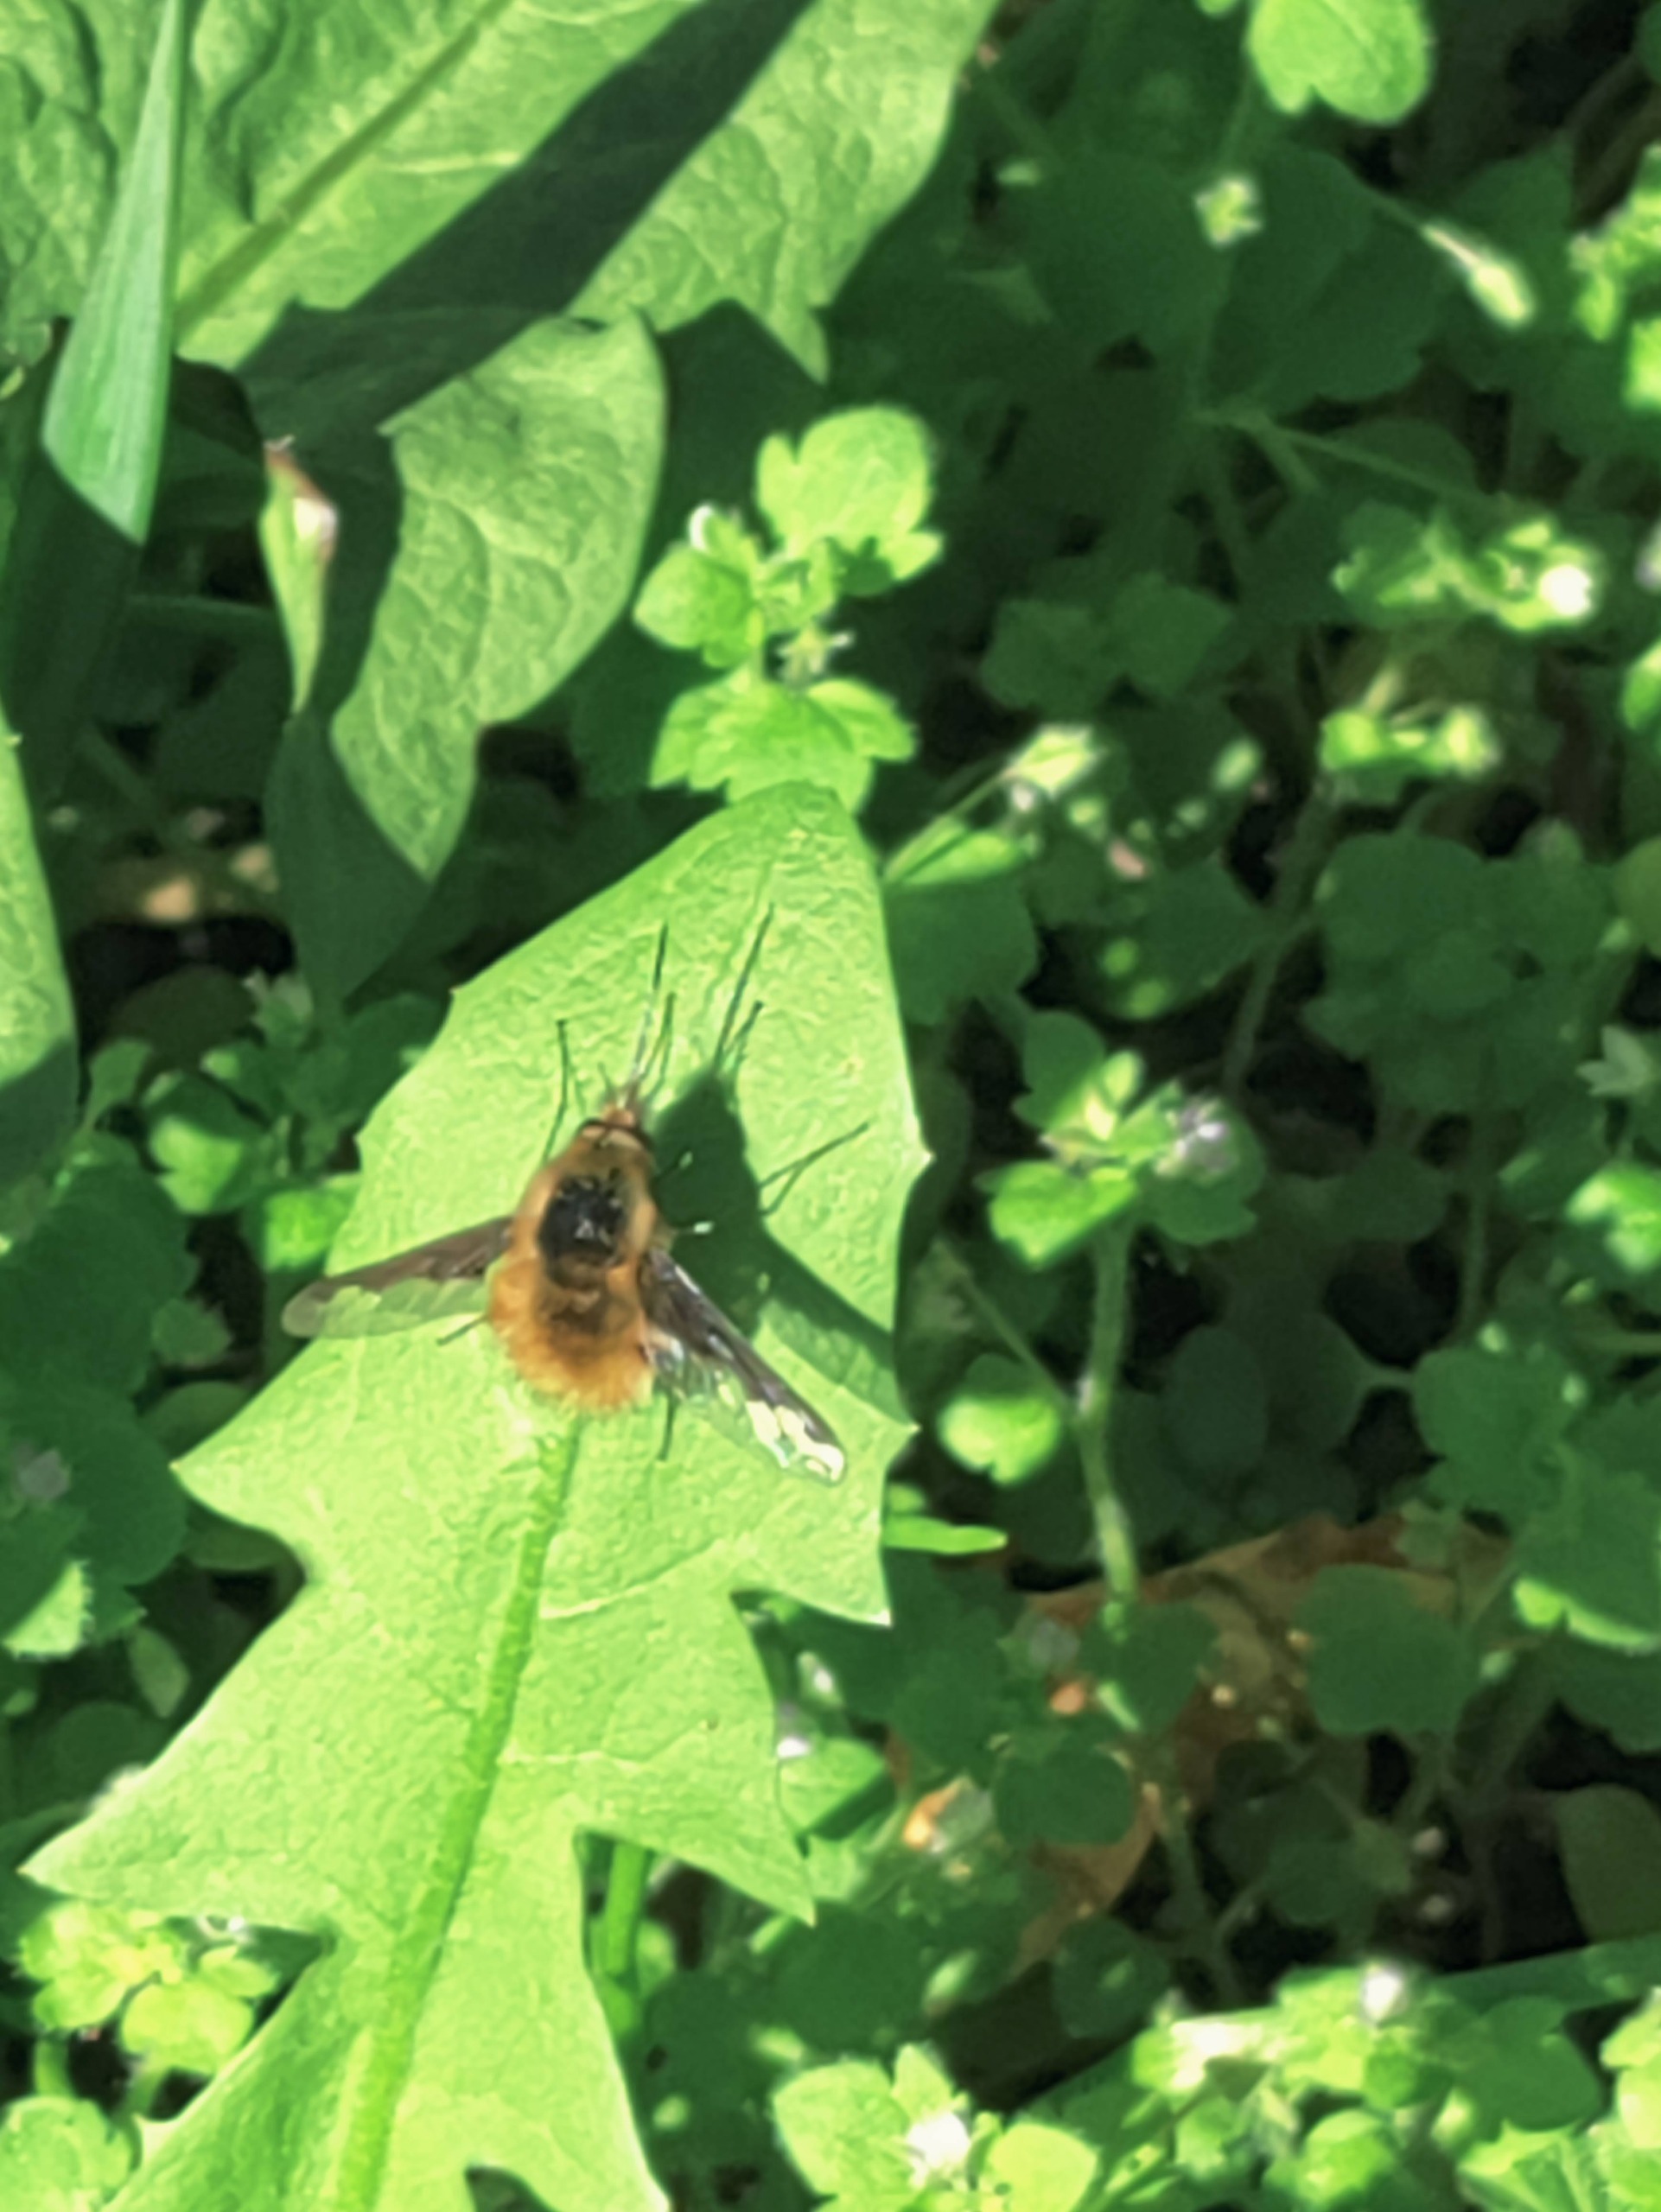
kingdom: Animalia
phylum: Arthropoda
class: Insecta
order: Diptera
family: Bombyliidae
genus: Bombylius
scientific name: Bombylius major
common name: Stor humleflue
